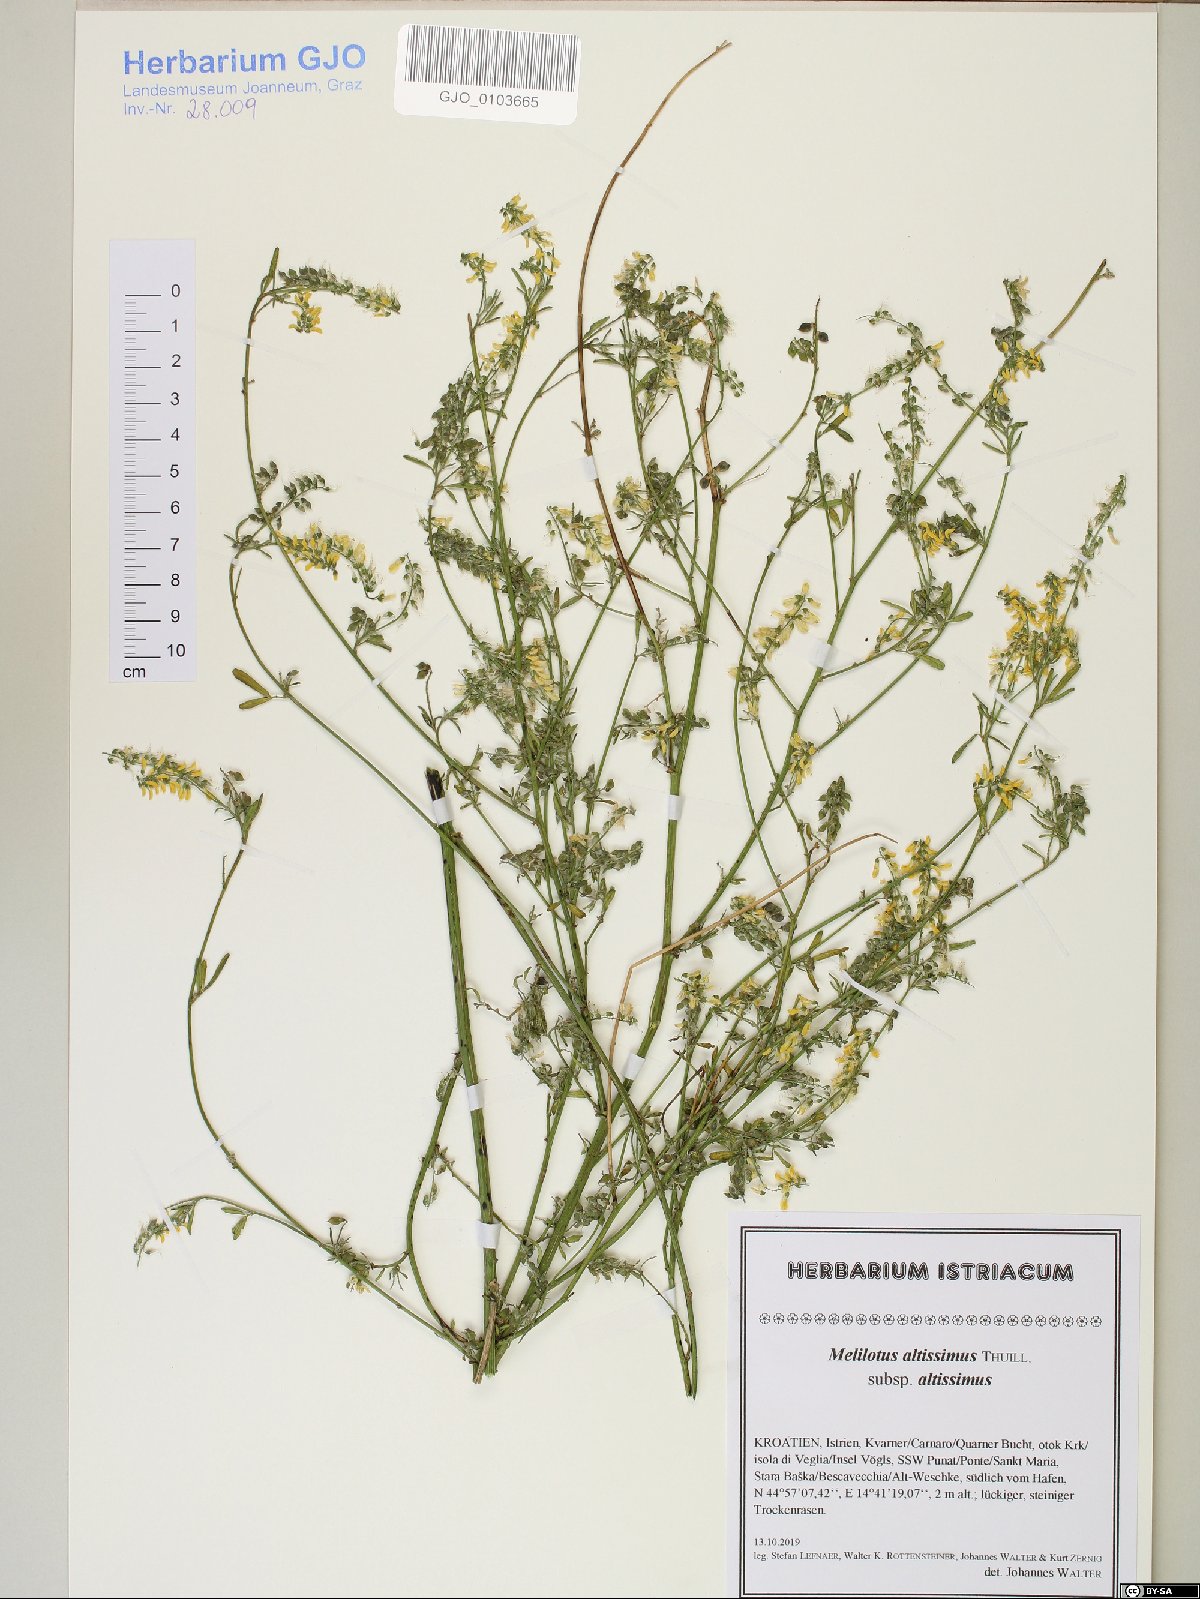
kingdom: Plantae
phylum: Tracheophyta
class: Magnoliopsida
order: Fabales
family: Fabaceae
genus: Melilotus
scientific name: Melilotus altissimus
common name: Tall melilot
